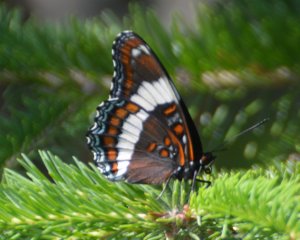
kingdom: Animalia
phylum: Arthropoda
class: Insecta
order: Lepidoptera
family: Nymphalidae
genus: Limenitis
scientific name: Limenitis arthemis
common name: Red-spotted Admiral
